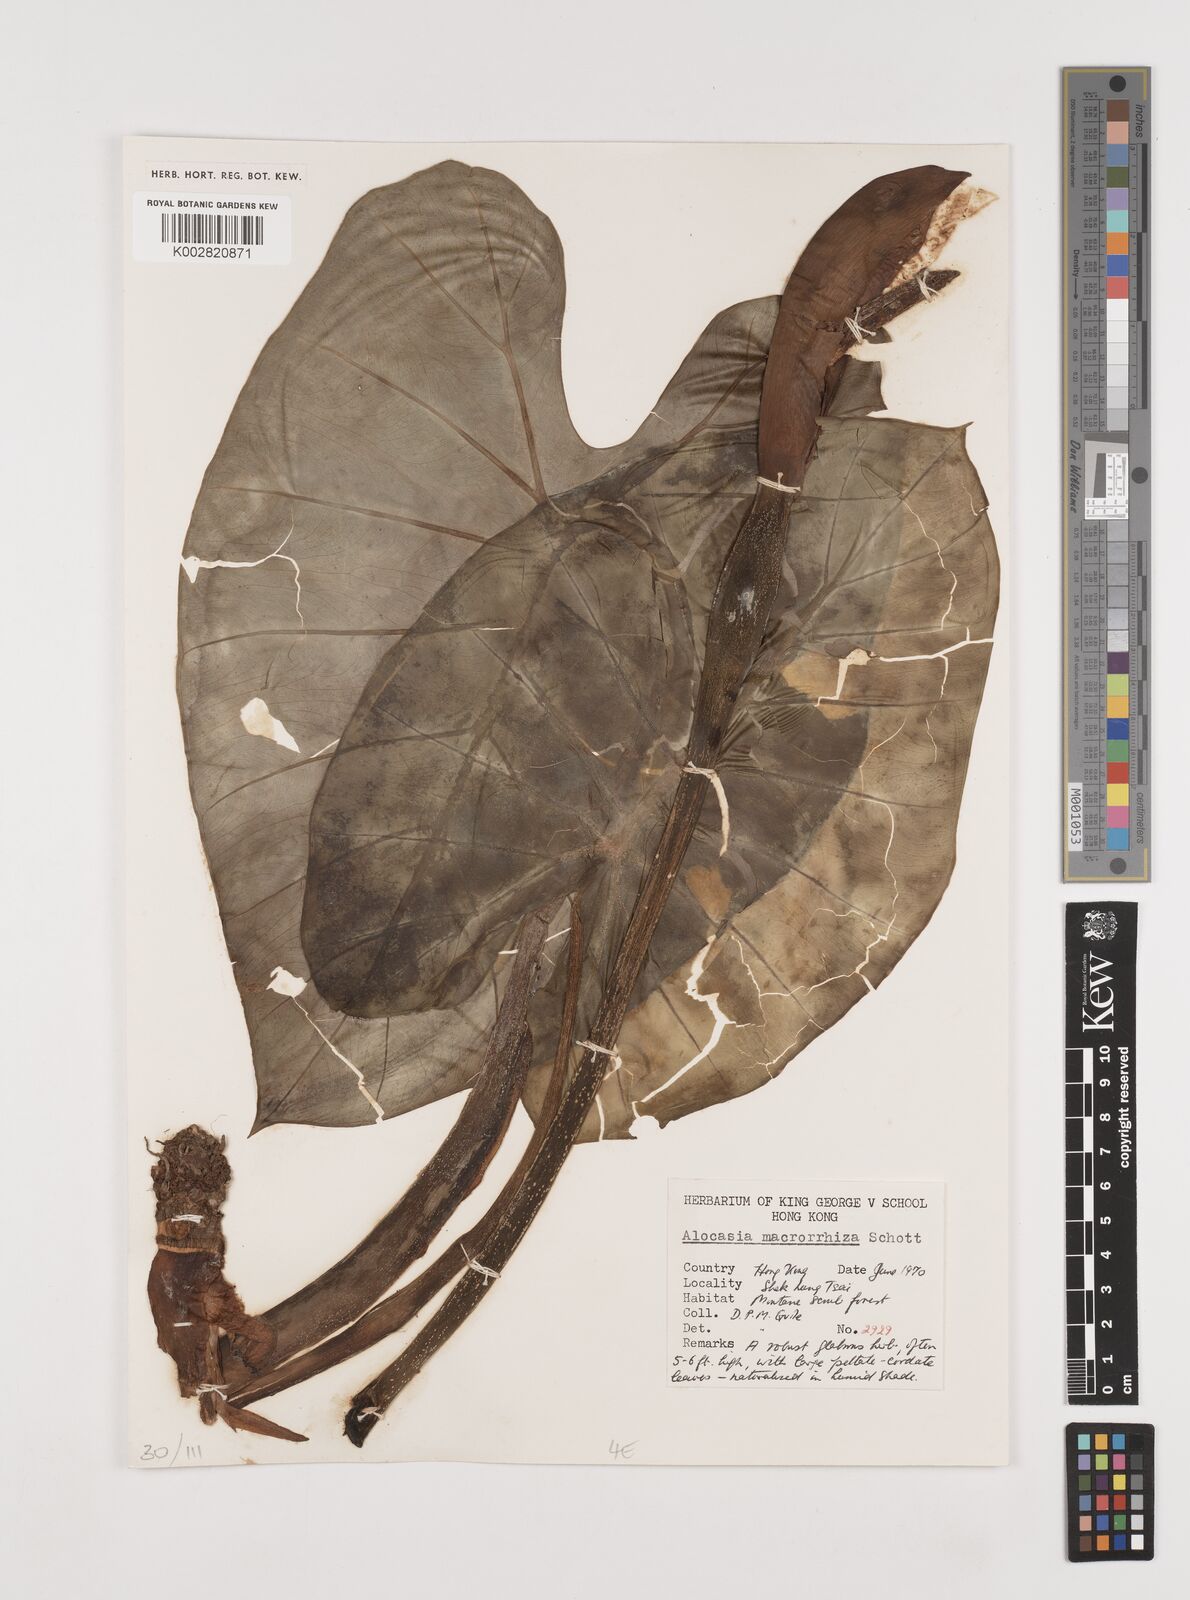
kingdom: Plantae
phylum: Tracheophyta
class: Liliopsida
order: Alismatales
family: Araceae
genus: Alocasia
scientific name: Alocasia macrorrhizos
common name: Giant taro
